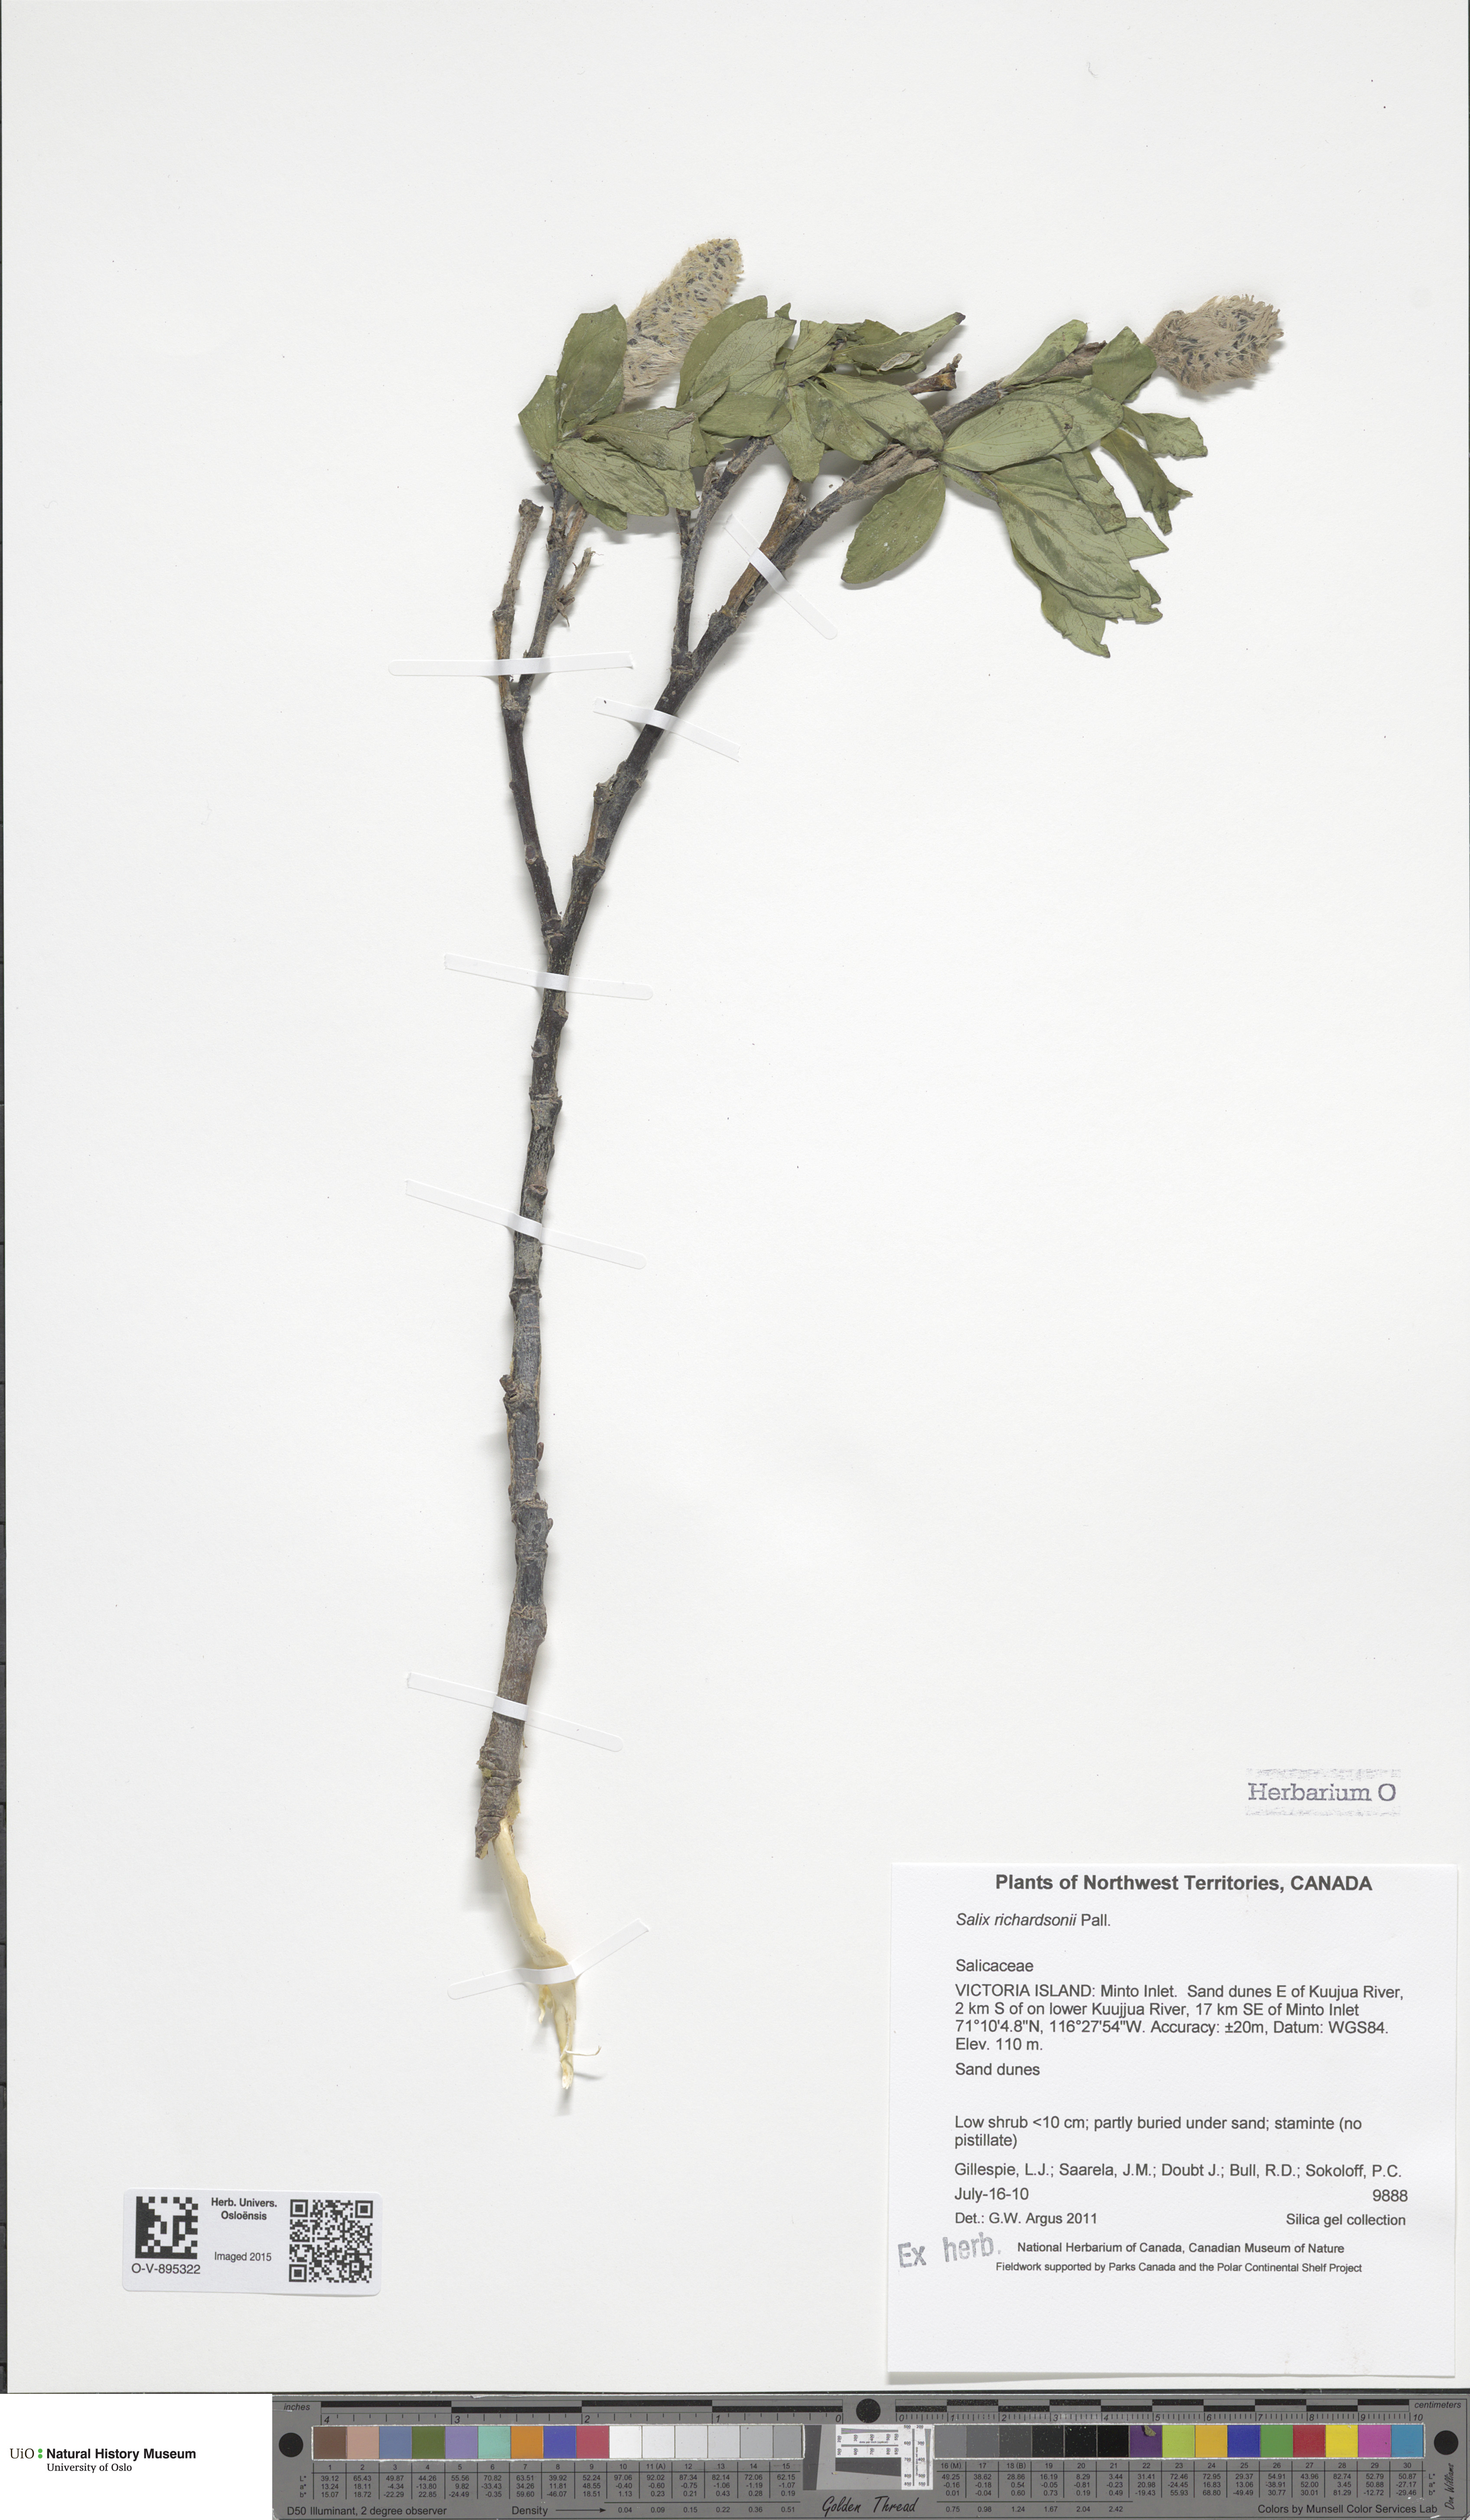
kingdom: Plantae
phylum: Tracheophyta
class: Magnoliopsida
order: Malpighiales
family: Salicaceae
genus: Salix
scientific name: Salix richardsonii
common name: Richardson’s willow
